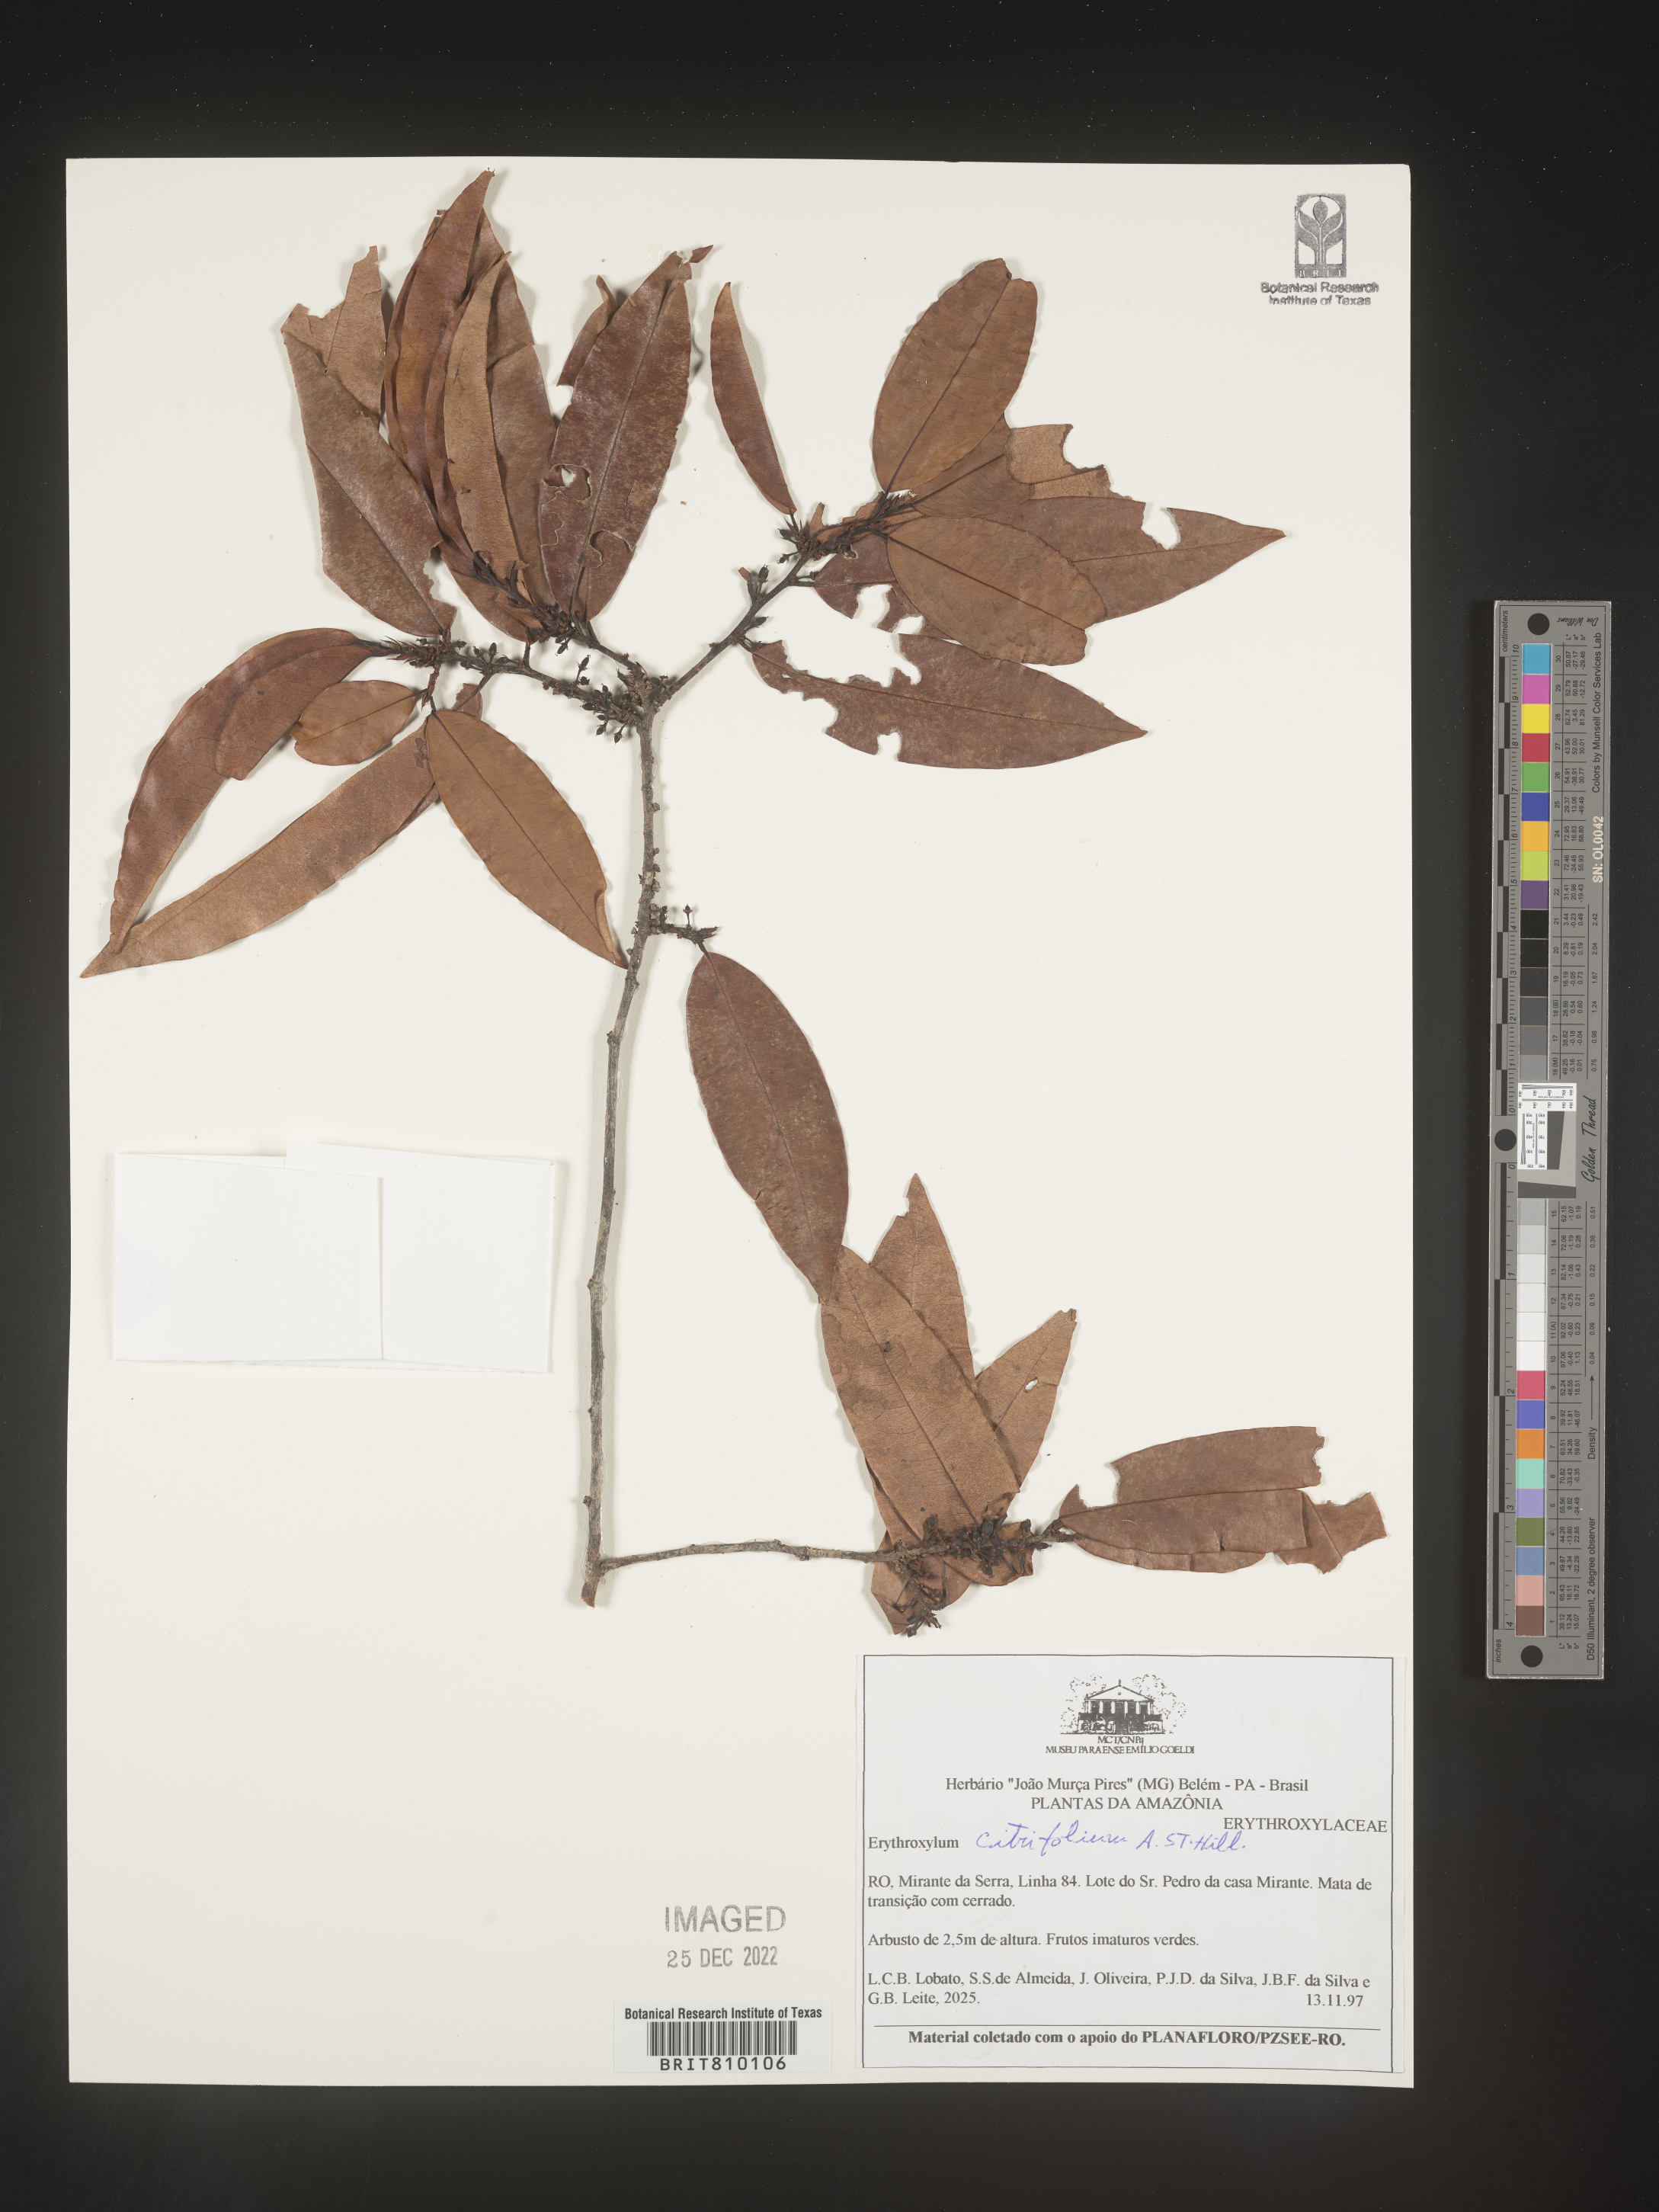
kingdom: Plantae
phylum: Tracheophyta
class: Magnoliopsida
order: Malpighiales
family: Erythroxylaceae
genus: Erythroxylum
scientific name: Erythroxylum
